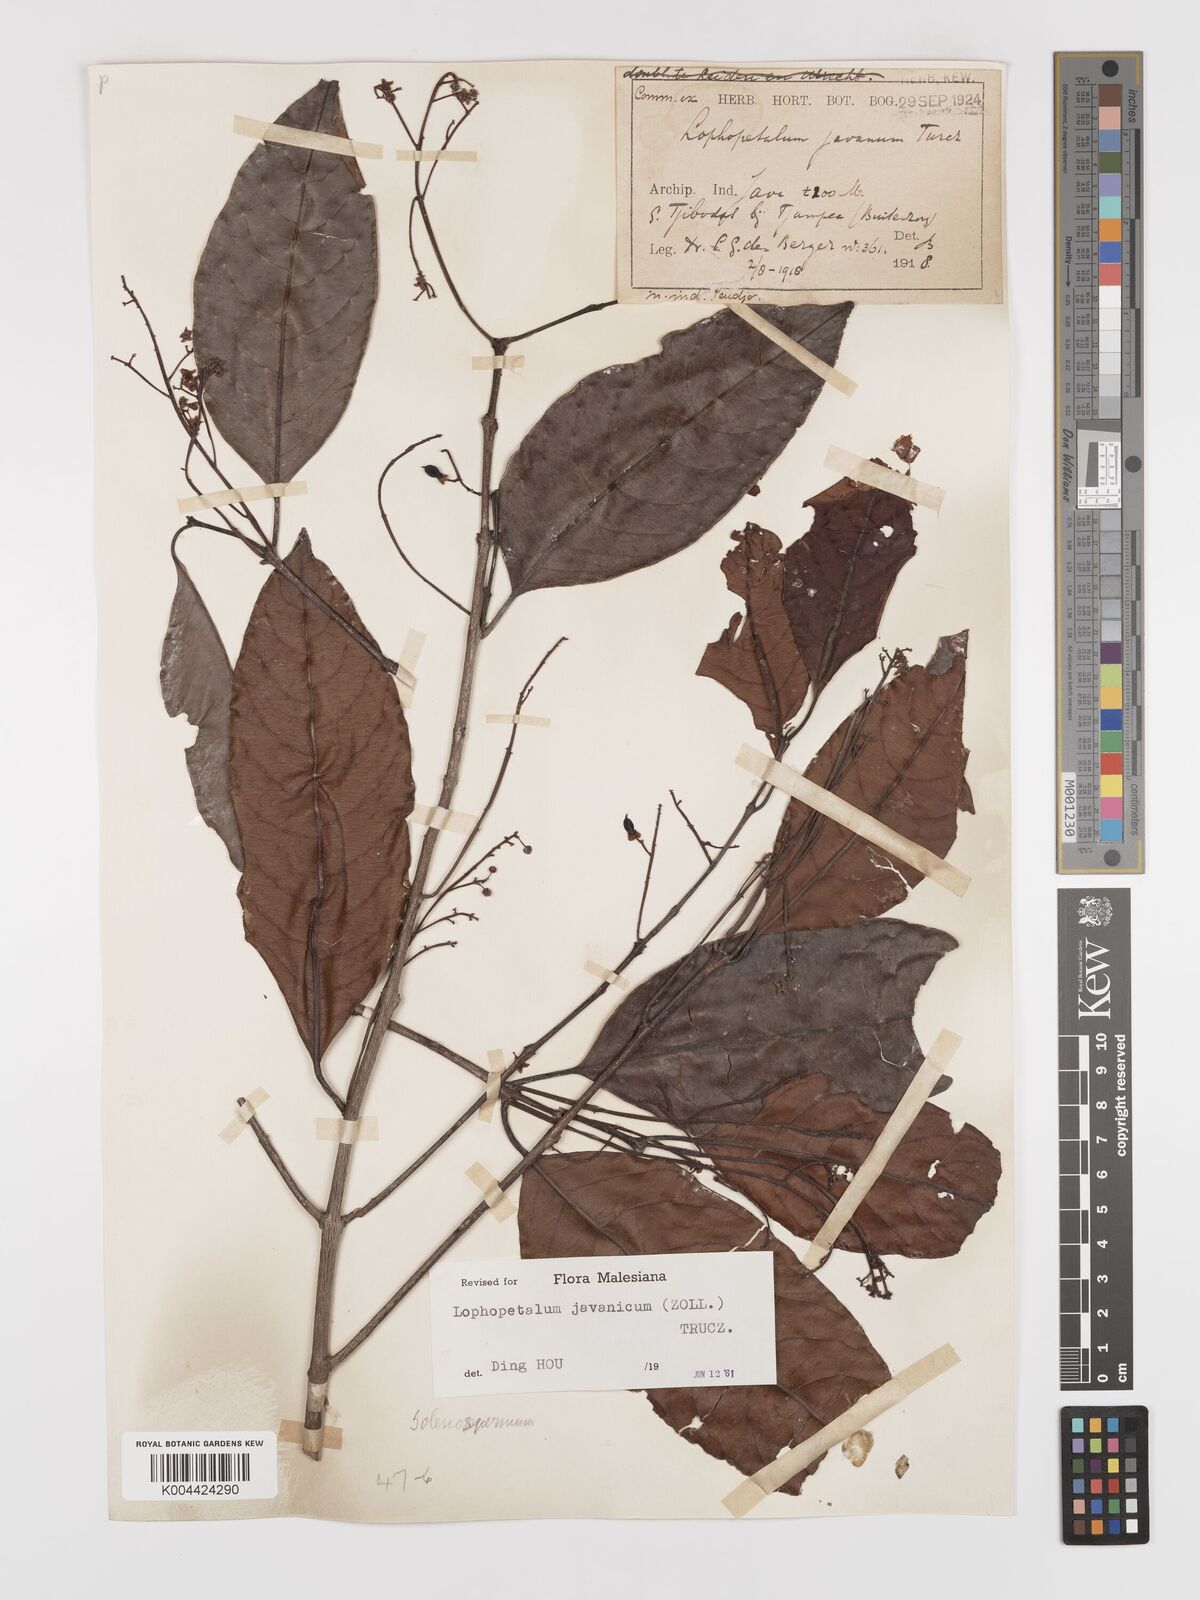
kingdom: Plantae
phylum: Tracheophyta
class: Magnoliopsida
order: Celastrales
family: Celastraceae
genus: Lophopetalum
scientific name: Lophopetalum javanicum
